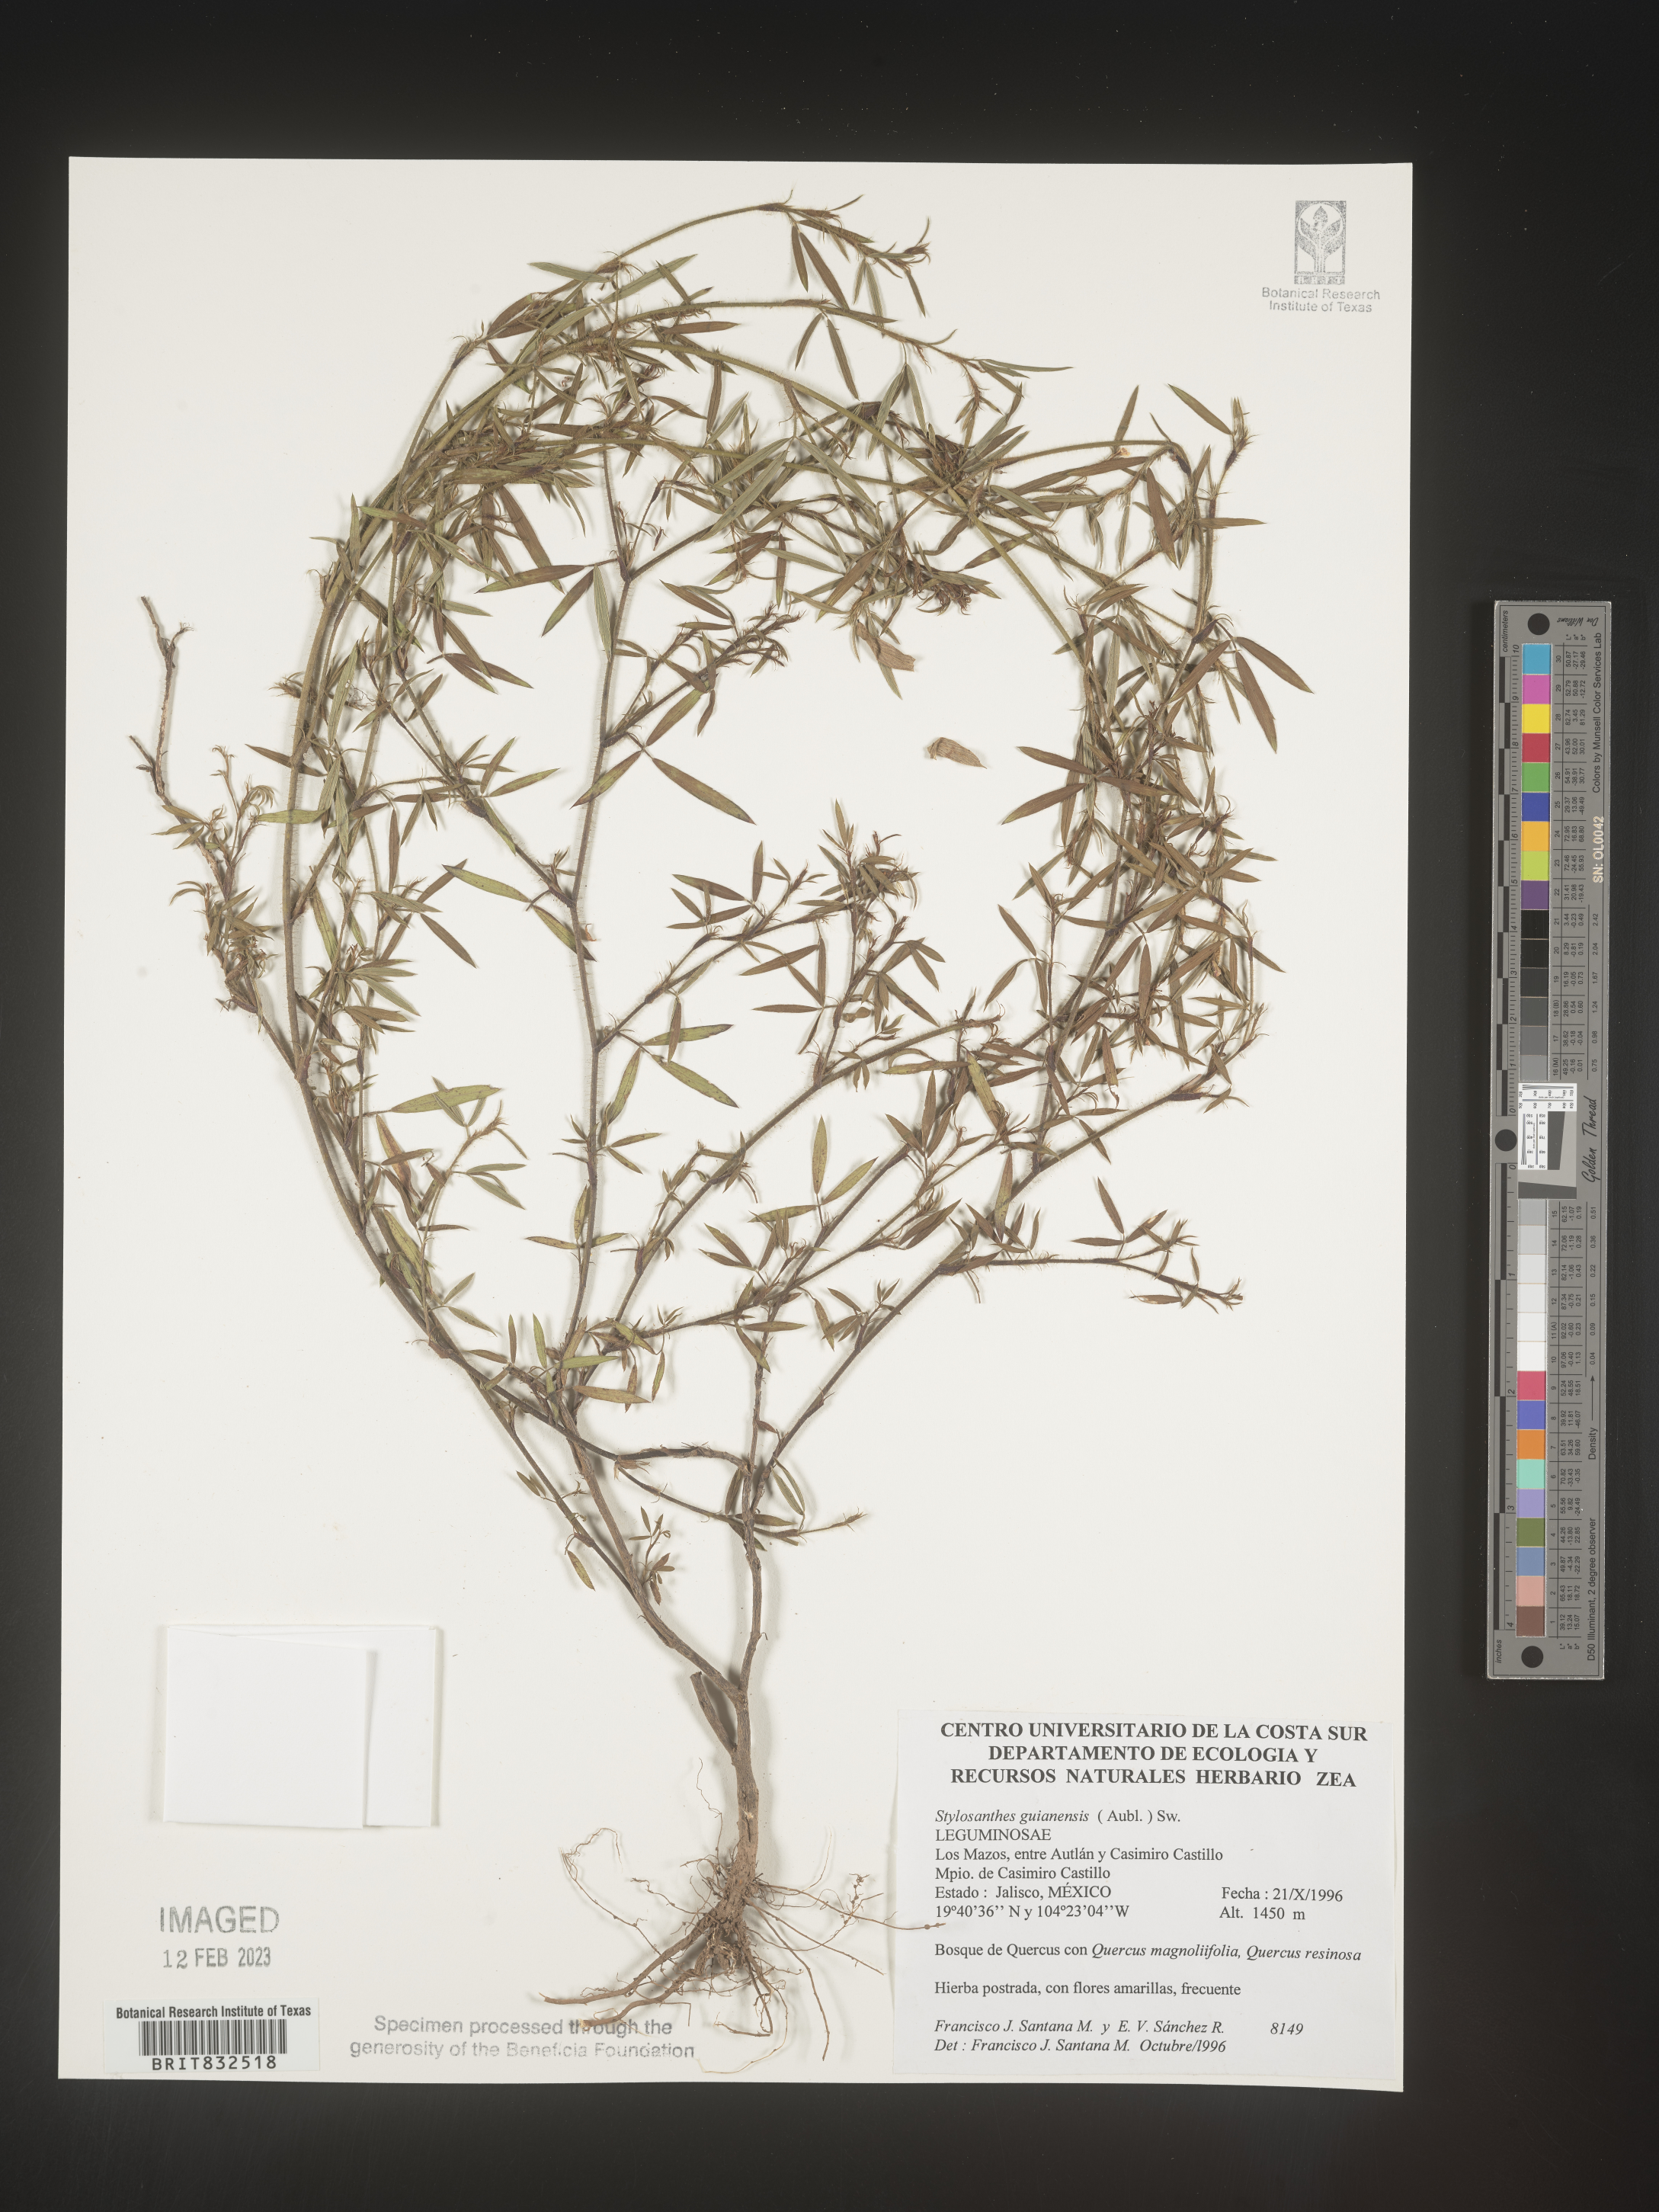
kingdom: Plantae
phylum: Tracheophyta
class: Magnoliopsida
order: Fabales
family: Fabaceae
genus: Stylosanthes
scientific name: Stylosanthes
